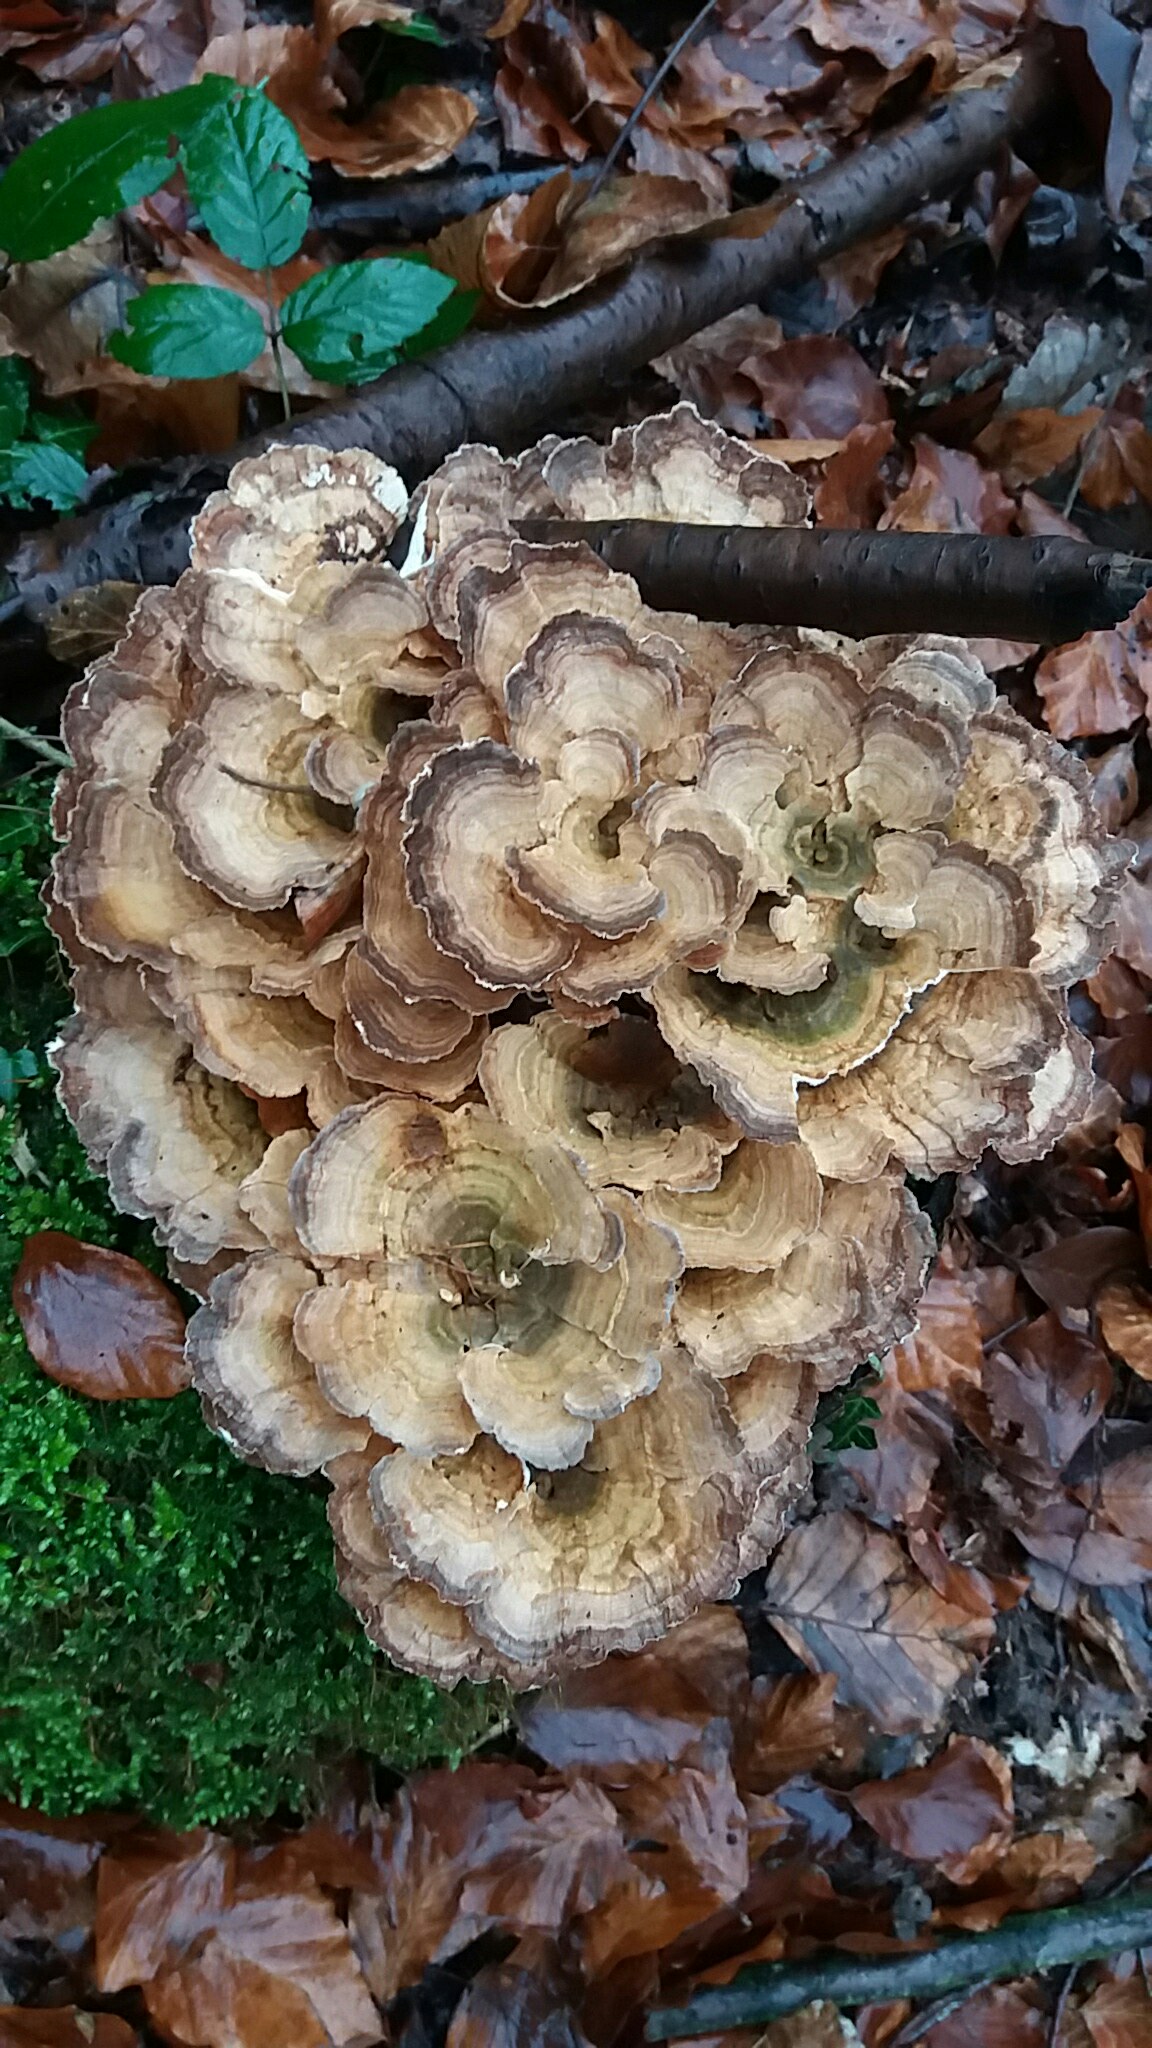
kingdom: Fungi
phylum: Basidiomycota
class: Agaricomycetes
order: Polyporales
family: Polyporaceae
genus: Trametes
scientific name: Trametes versicolor
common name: broget læderporesvamp
